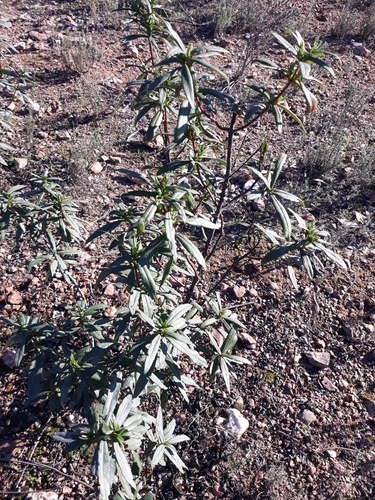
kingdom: Plantae
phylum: Tracheophyta
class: Magnoliopsida
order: Malvales
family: Cistaceae
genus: Cistus
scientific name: Cistus ladanifer
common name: Common gum cistus
